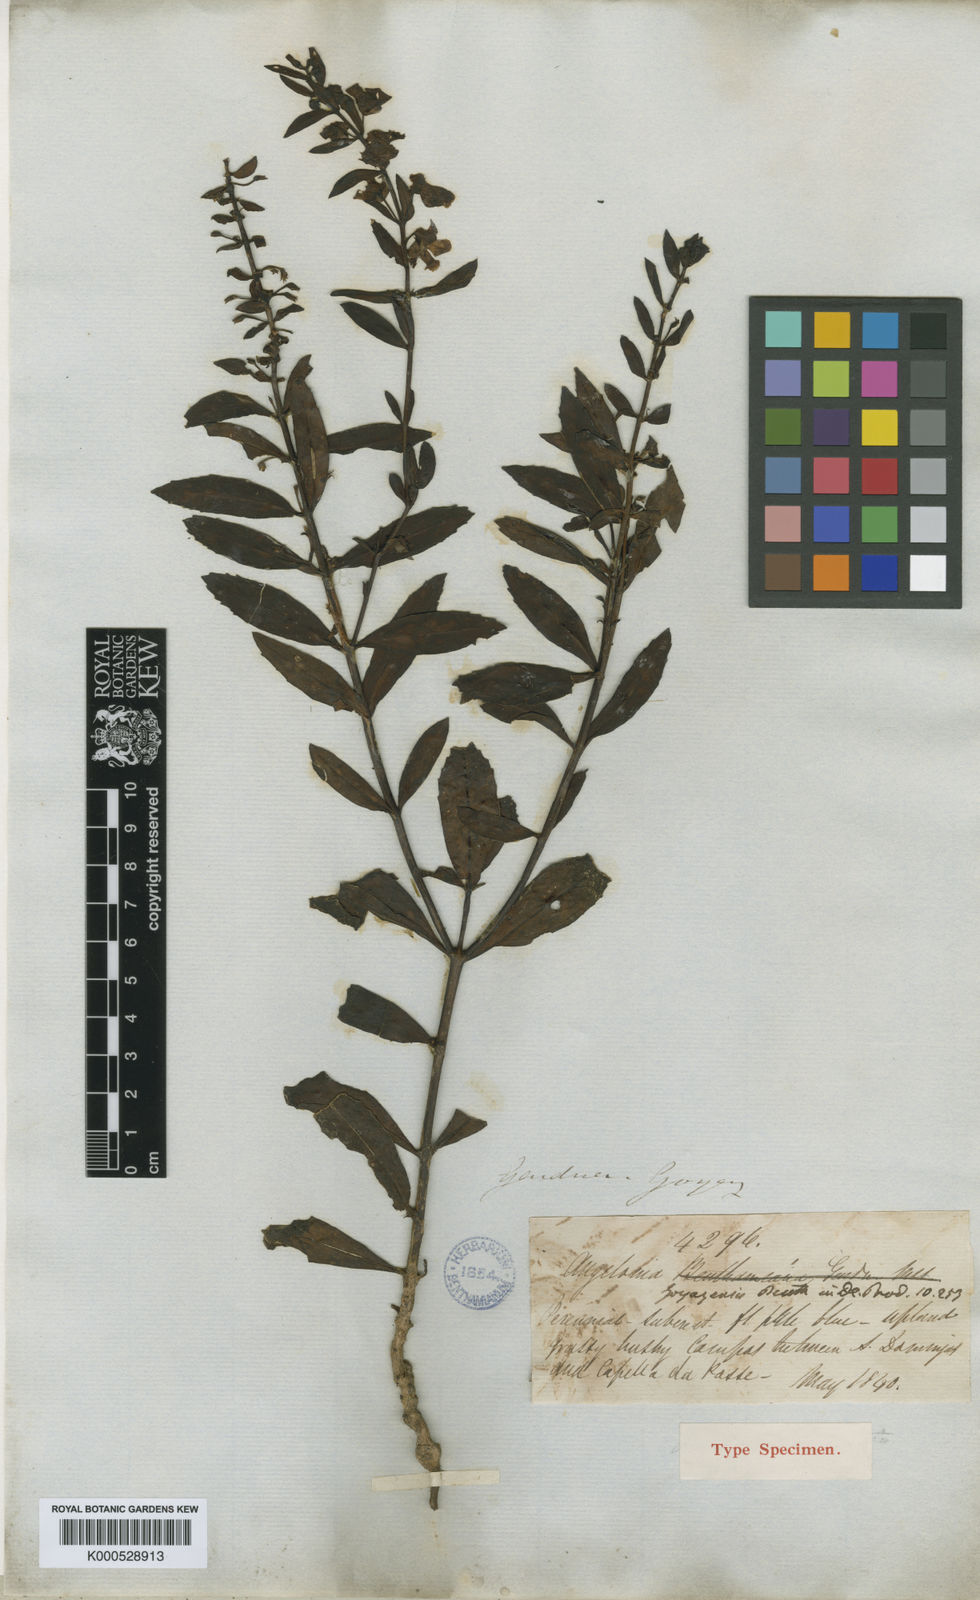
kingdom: Plantae
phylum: Tracheophyta
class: Magnoliopsida
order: Lamiales
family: Plantaginaceae
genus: Angelonia
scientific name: Angelonia goyazensis
